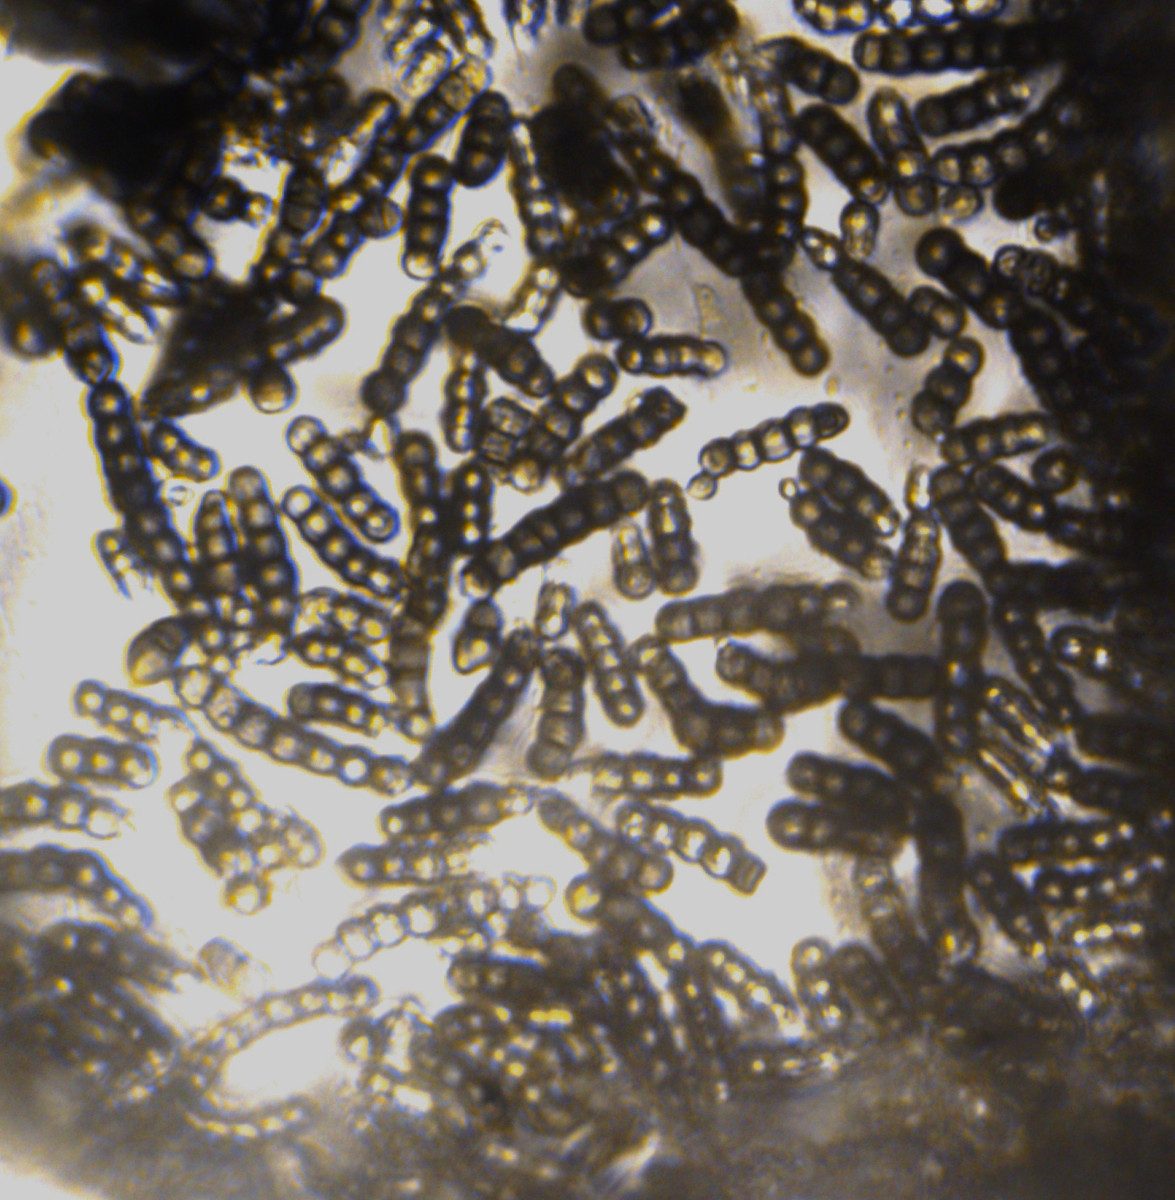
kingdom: Fungi
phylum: Ascomycota
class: Dothideomycetes
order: Pleosporales
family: Torulaceae
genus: Torula
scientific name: Torula herbarum
